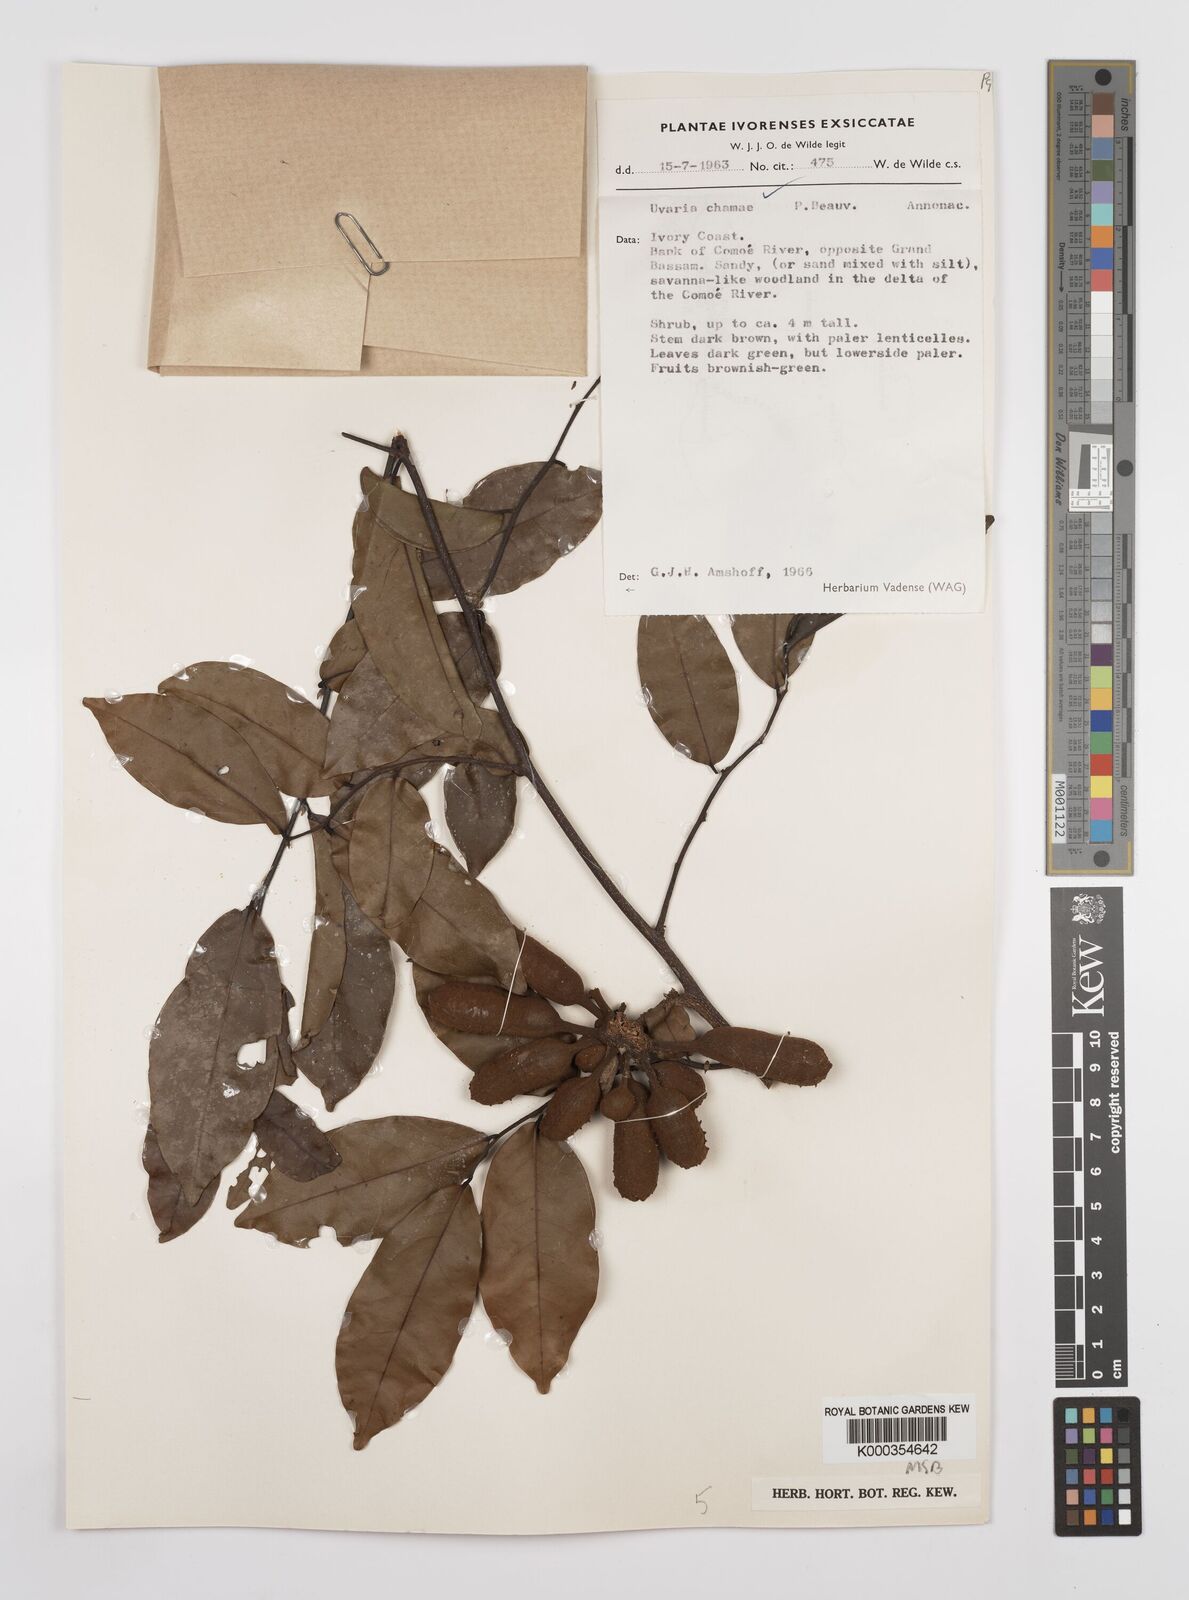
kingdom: Plantae
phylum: Tracheophyta
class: Magnoliopsida
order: Magnoliales
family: Annonaceae
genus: Uvaria
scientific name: Uvaria chamae
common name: Finger-root
